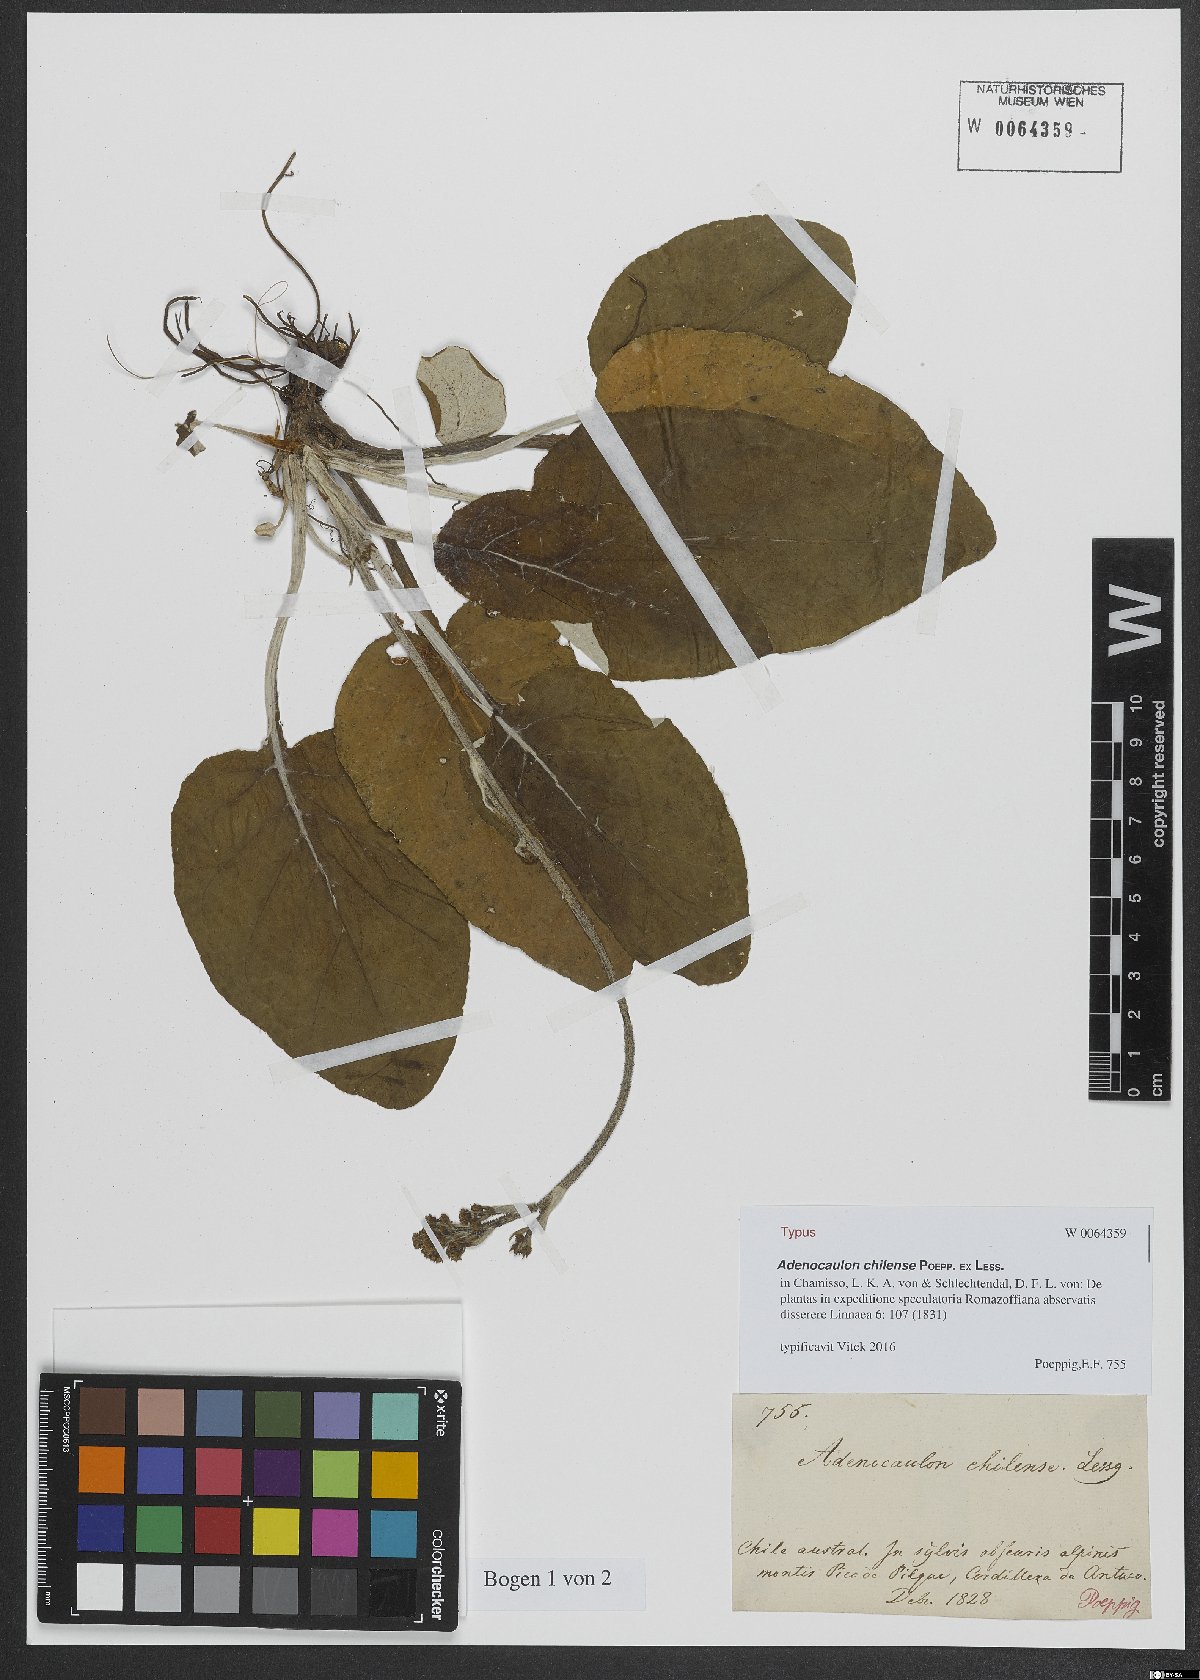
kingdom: Plantae
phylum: Tracheophyta
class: Magnoliopsida
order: Asterales
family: Asteraceae
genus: Adenocaulon
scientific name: Adenocaulon chilense
